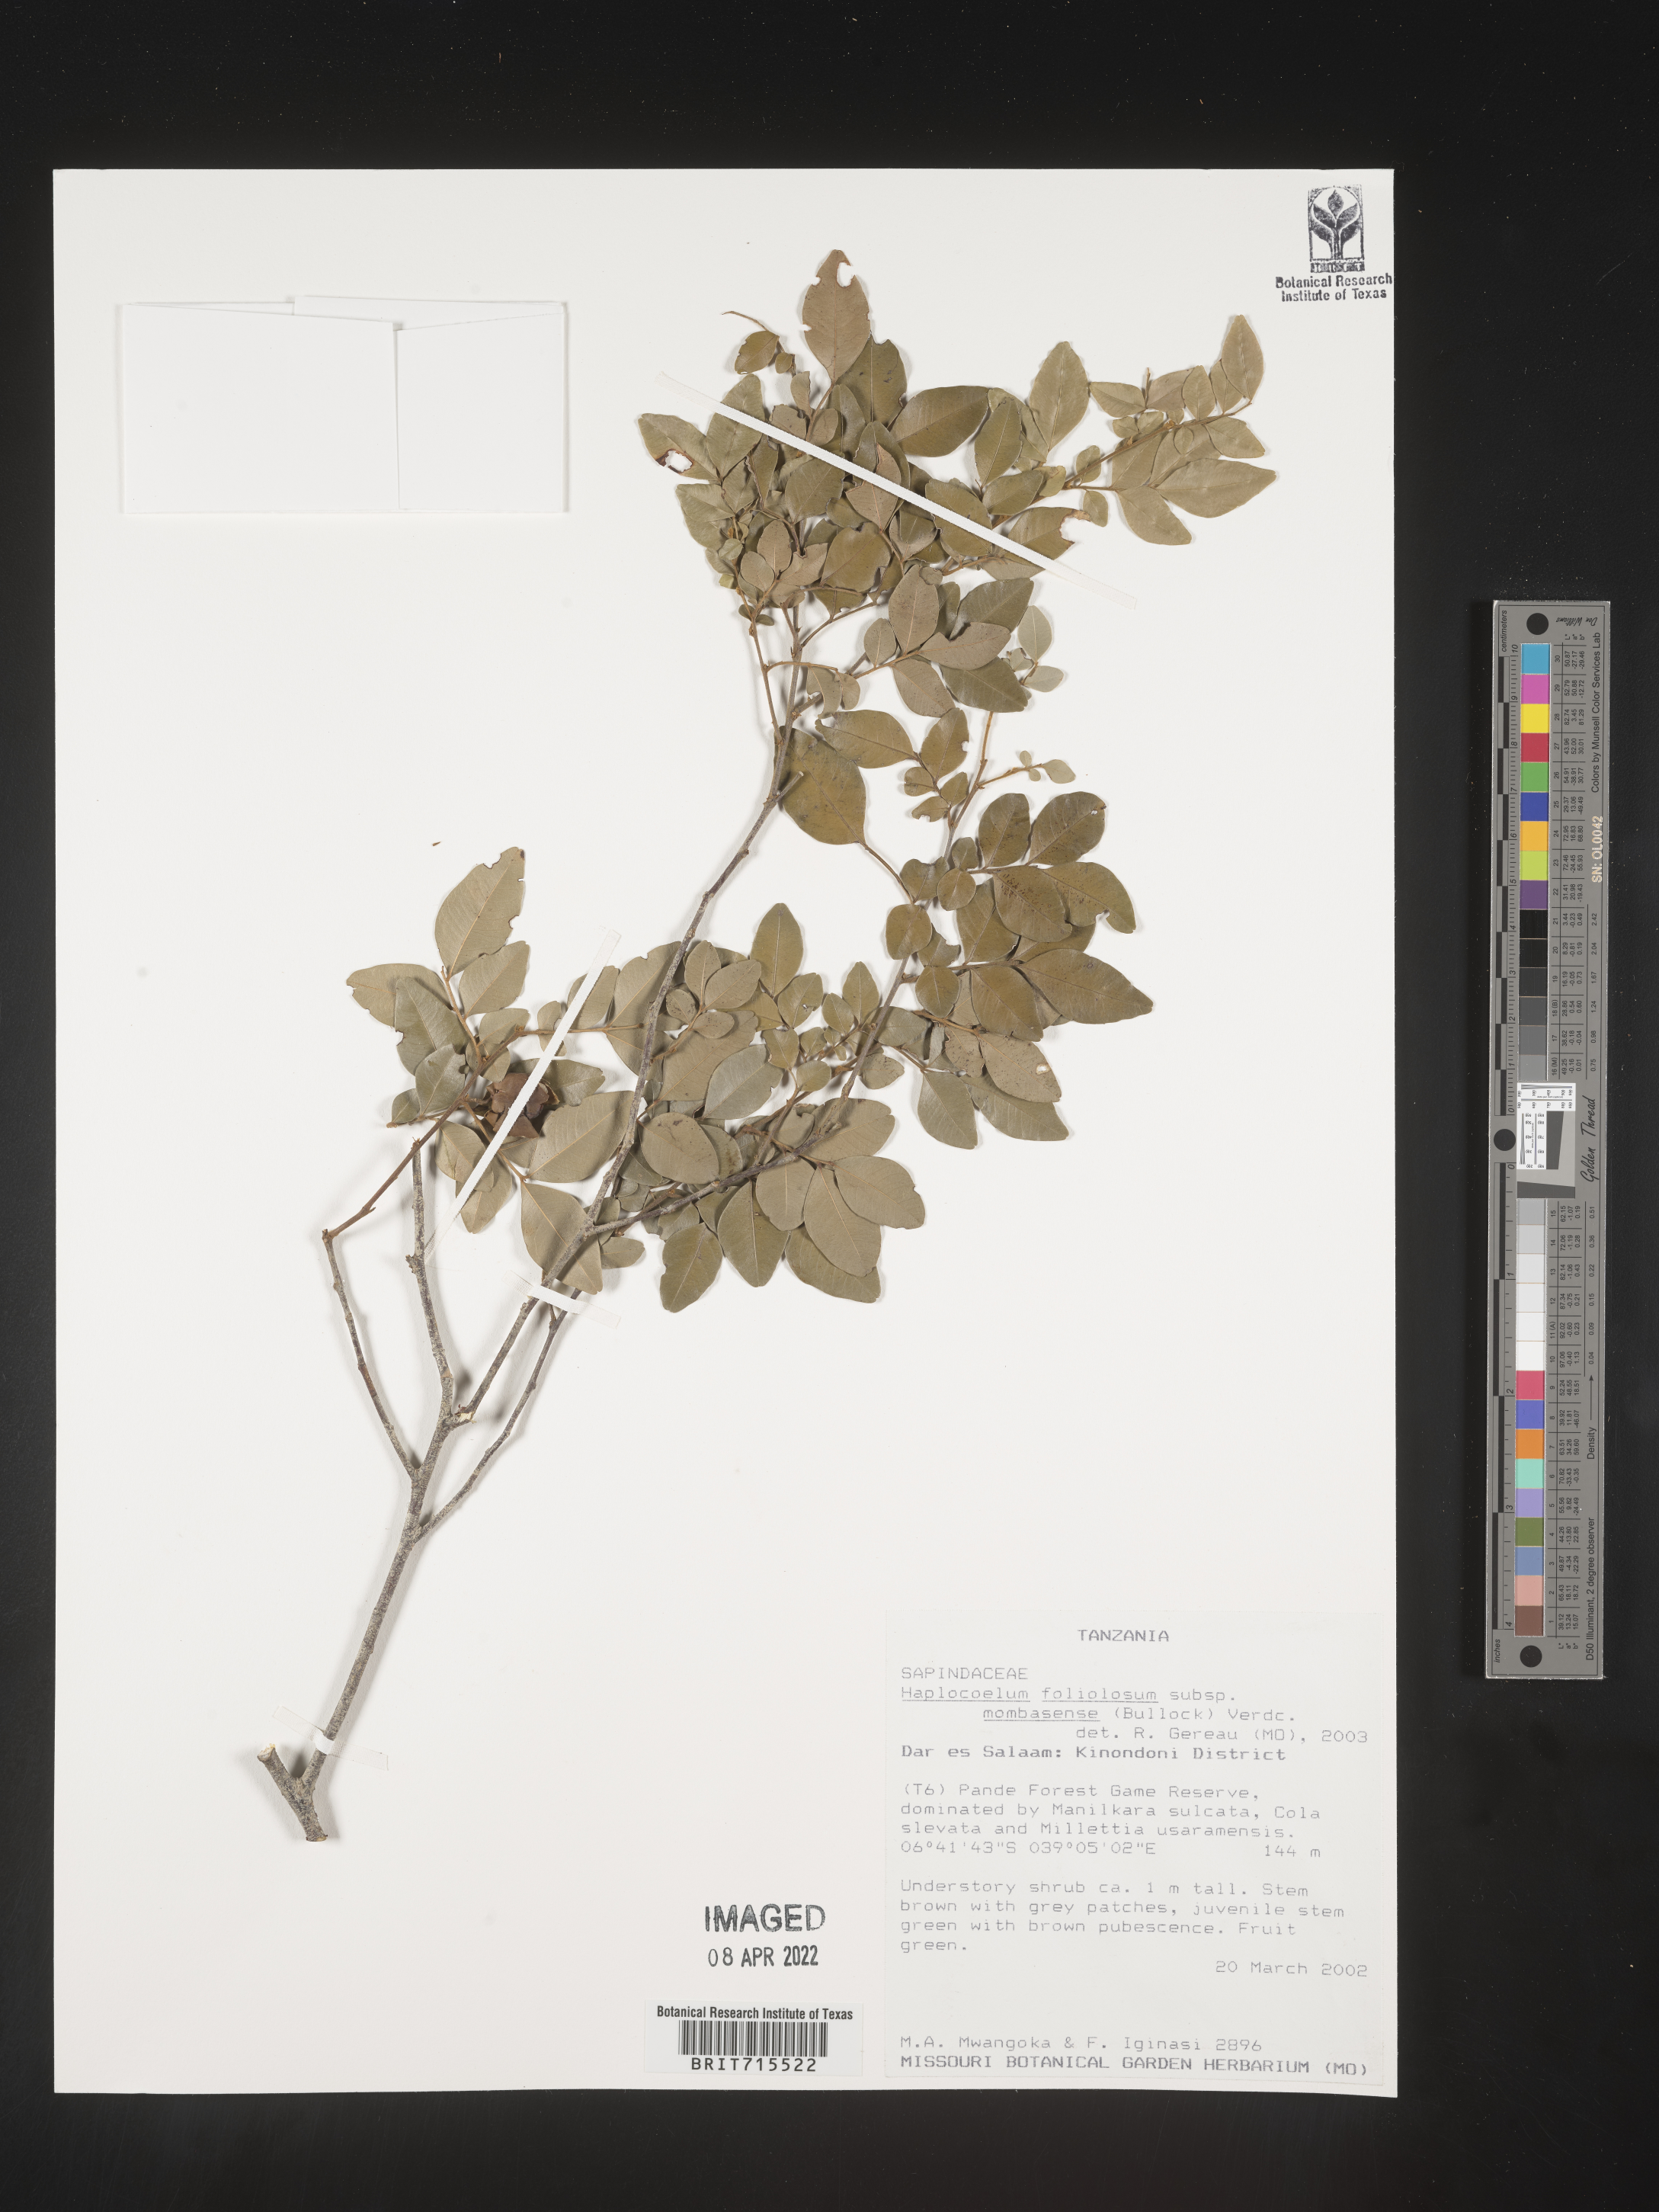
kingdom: Plantae
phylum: Tracheophyta
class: Magnoliopsida
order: Sapindales
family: Sapindaceae
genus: Haplocoelum
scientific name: Haplocoelum
